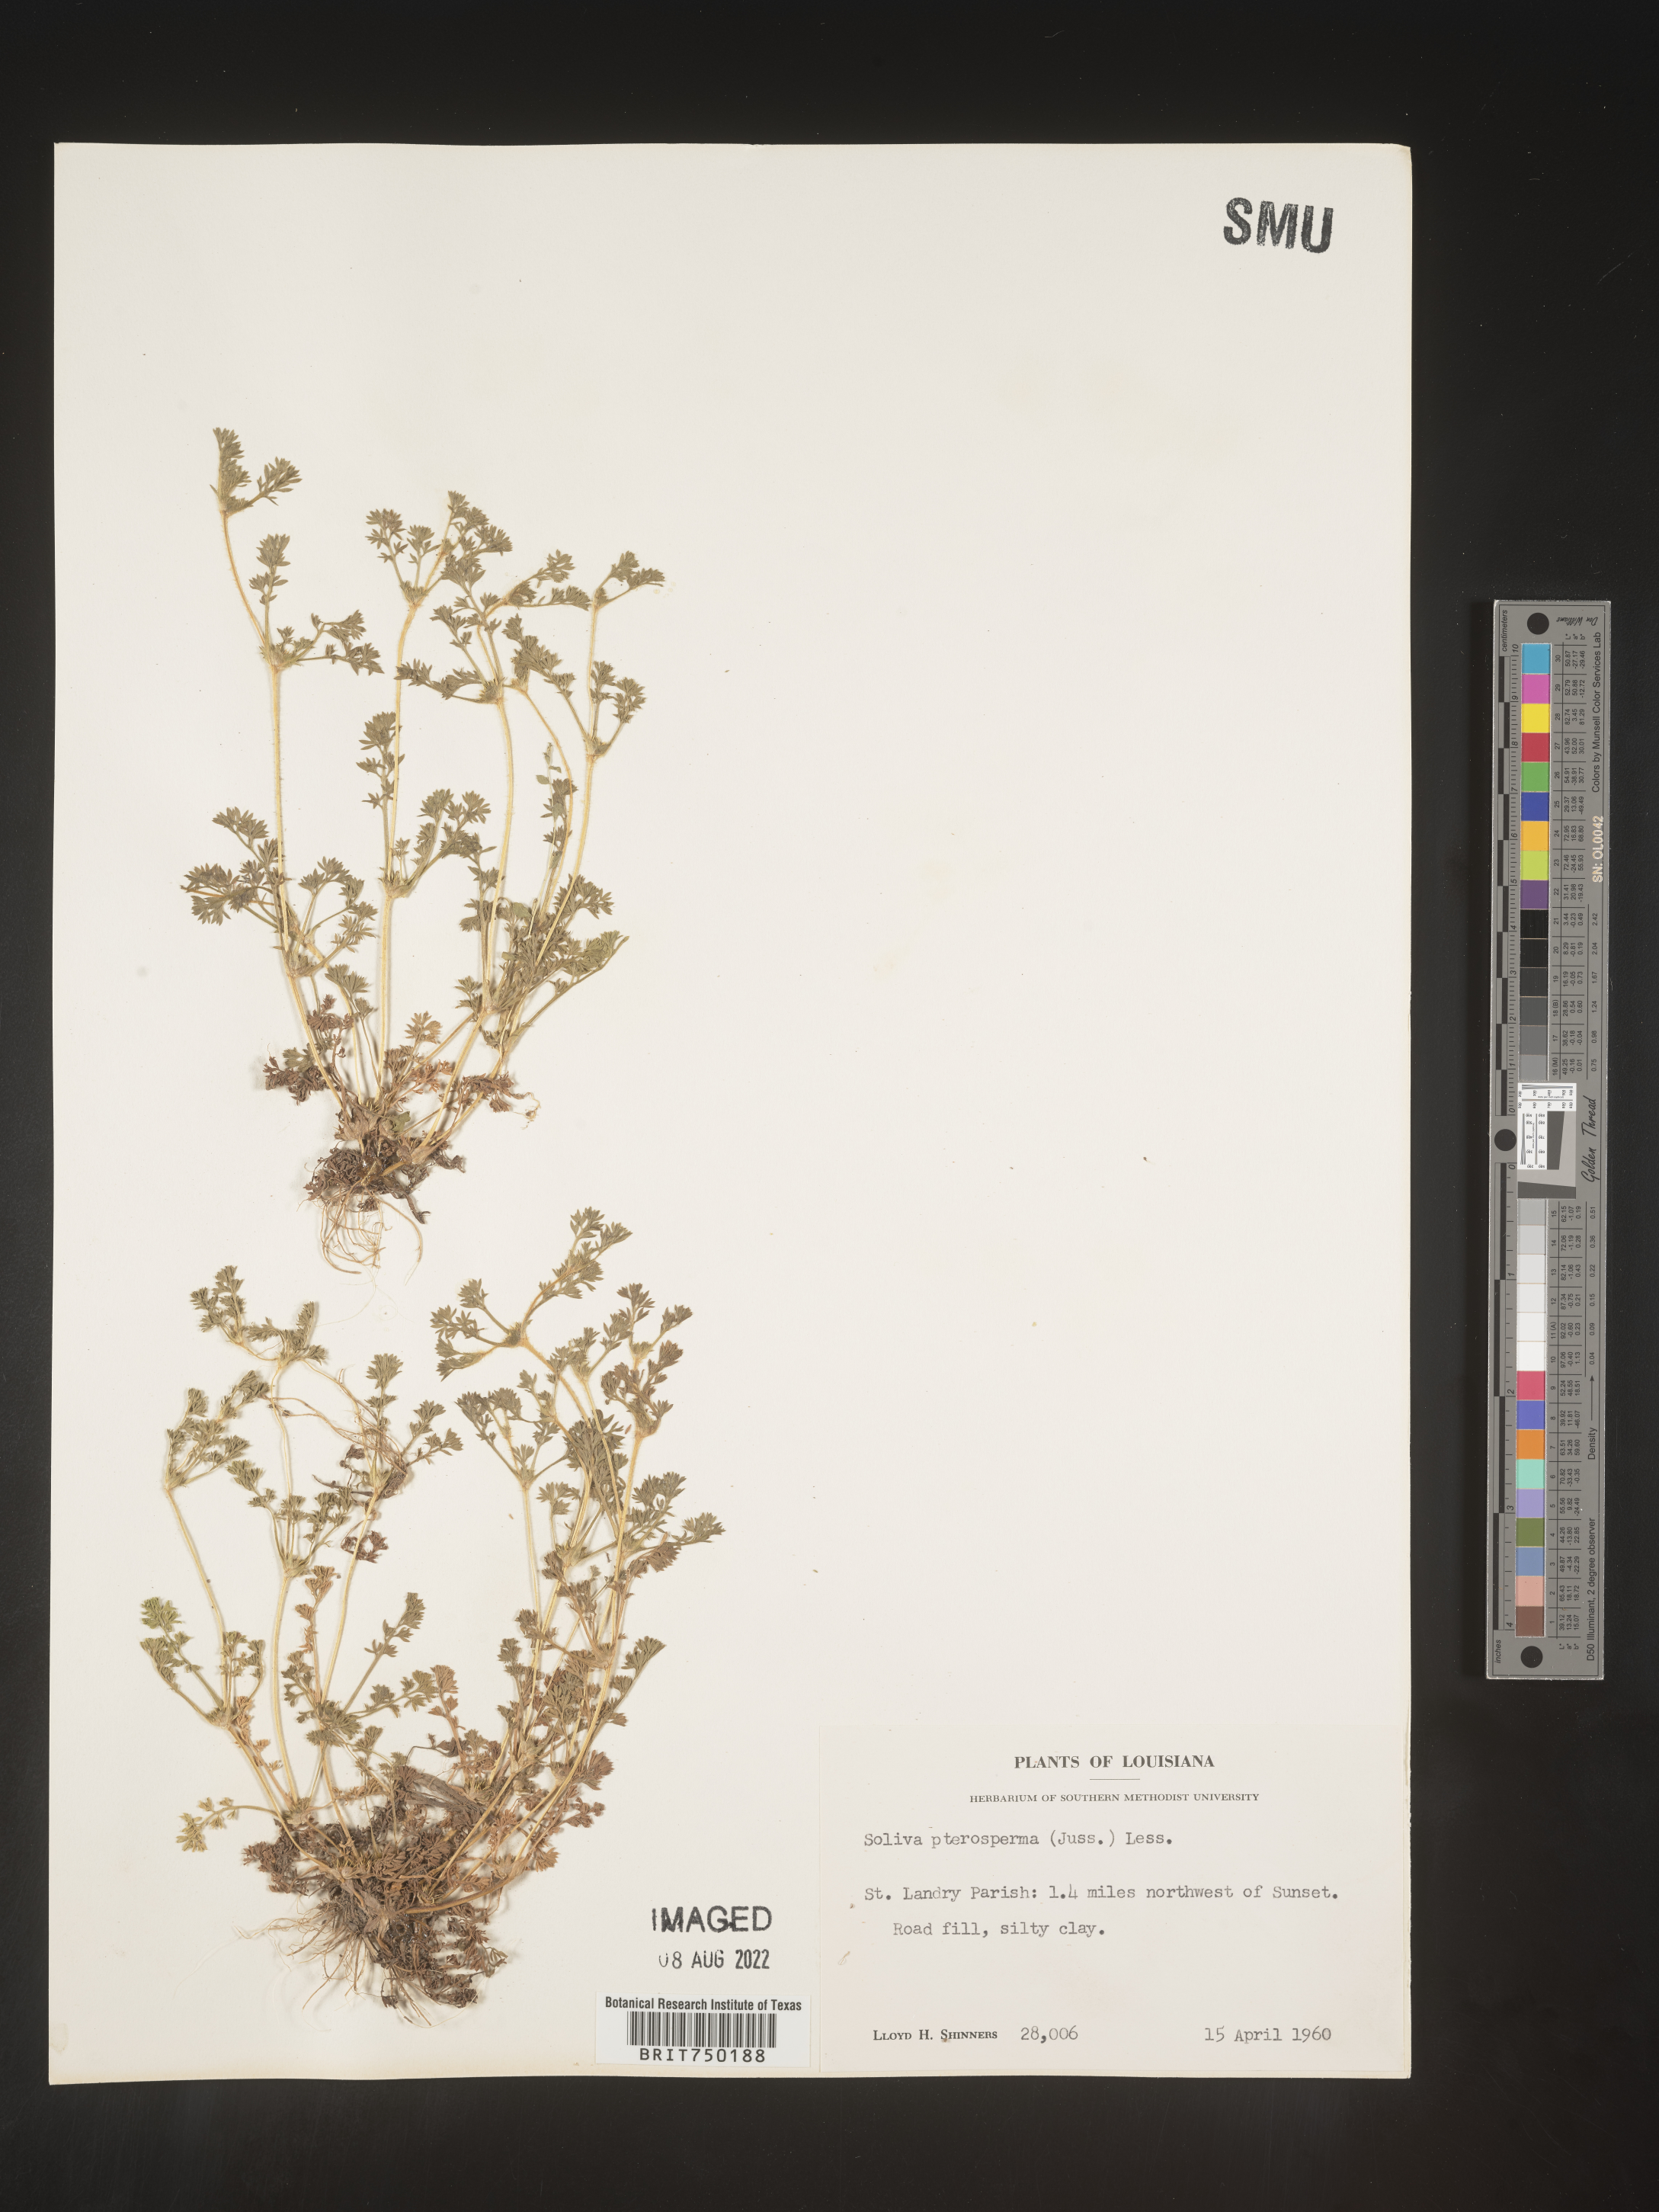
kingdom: Plantae
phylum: Tracheophyta
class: Magnoliopsida
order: Asterales
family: Asteraceae
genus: Soliva
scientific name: Soliva sessilis
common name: Field burrweed
